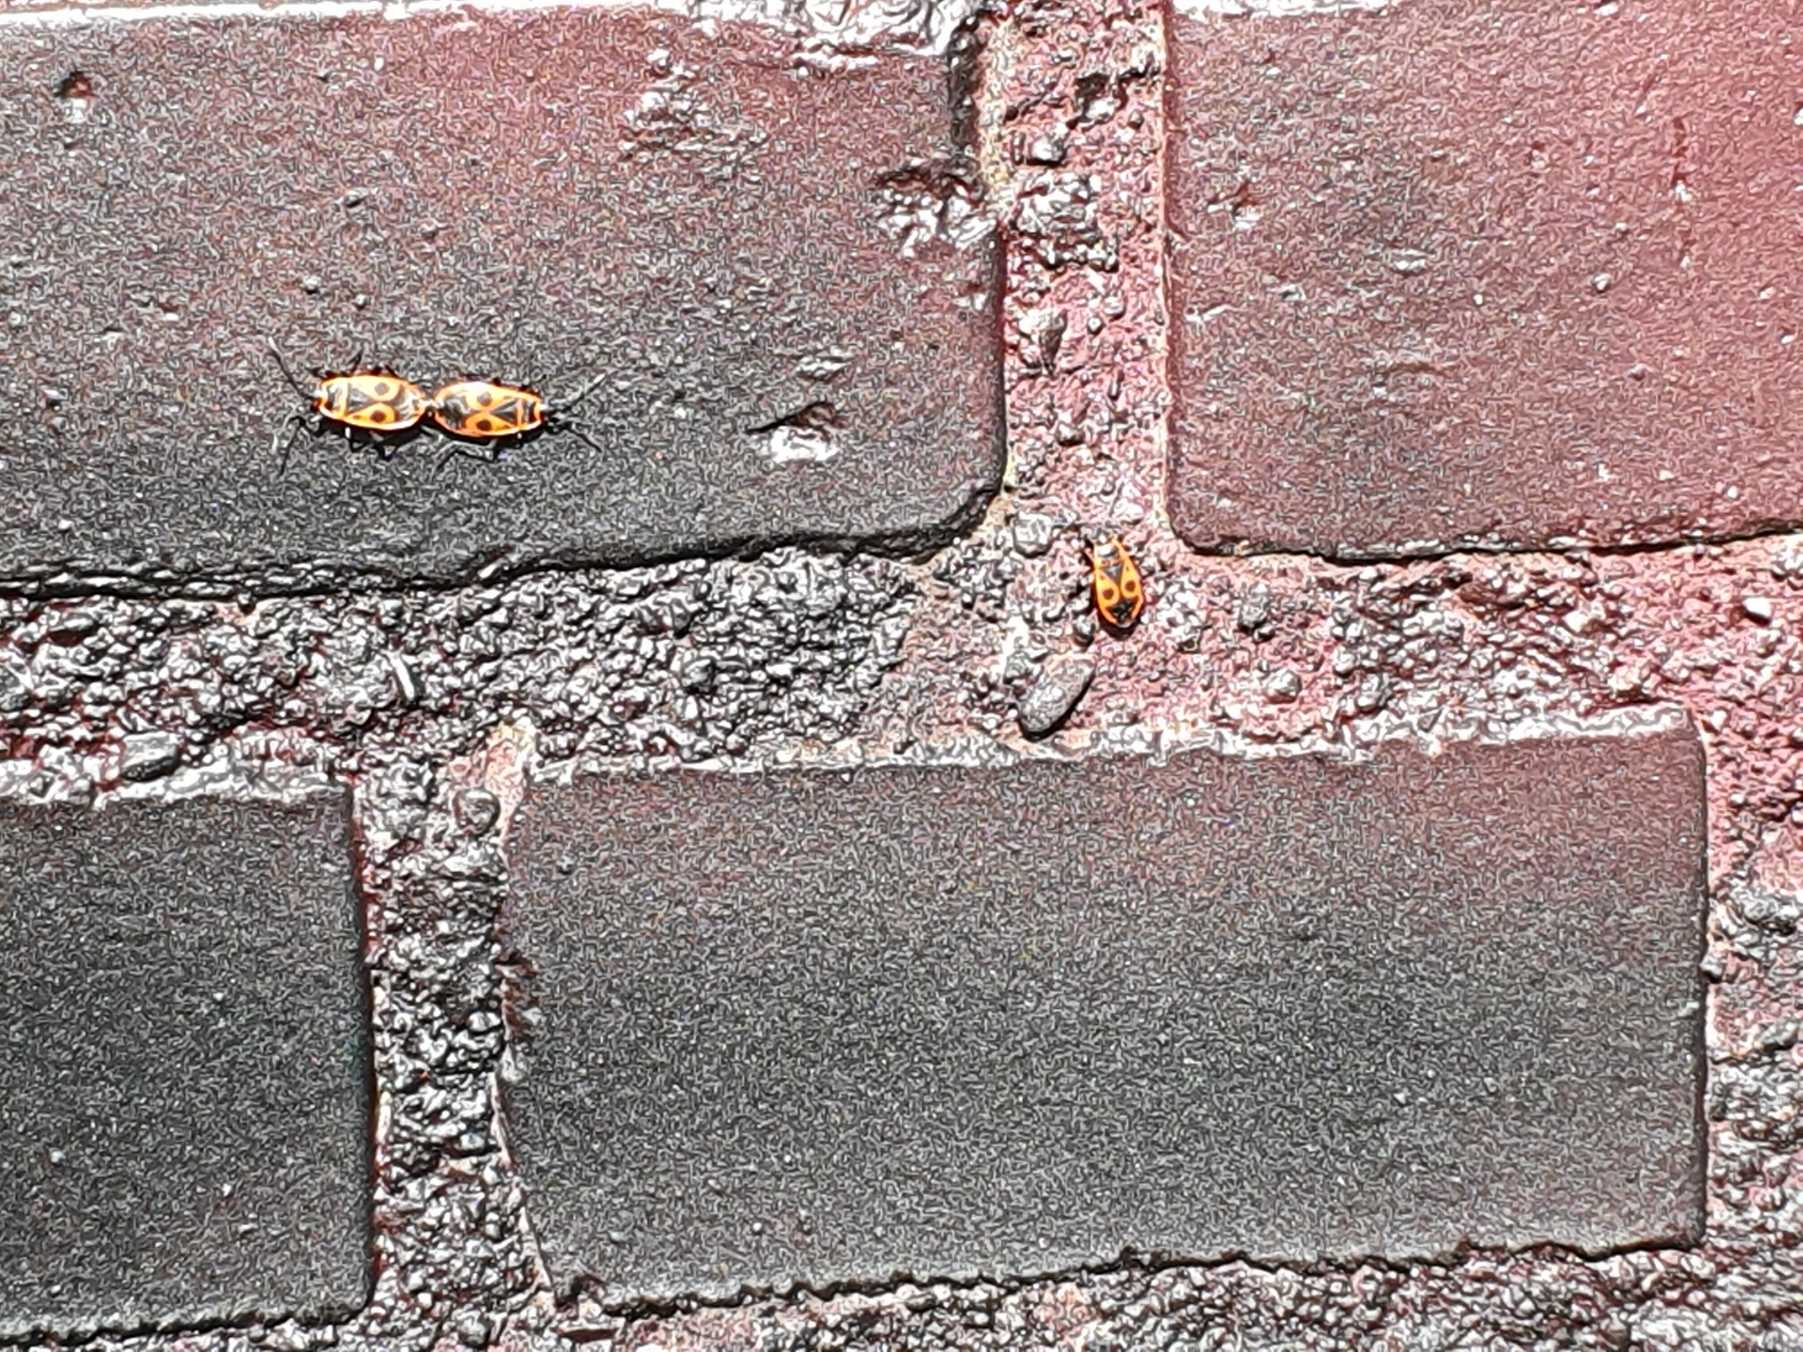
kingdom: Animalia
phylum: Arthropoda
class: Insecta
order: Hemiptera
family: Pyrrhocoridae
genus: Pyrrhocoris
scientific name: Pyrrhocoris apterus
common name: Ildtæge
